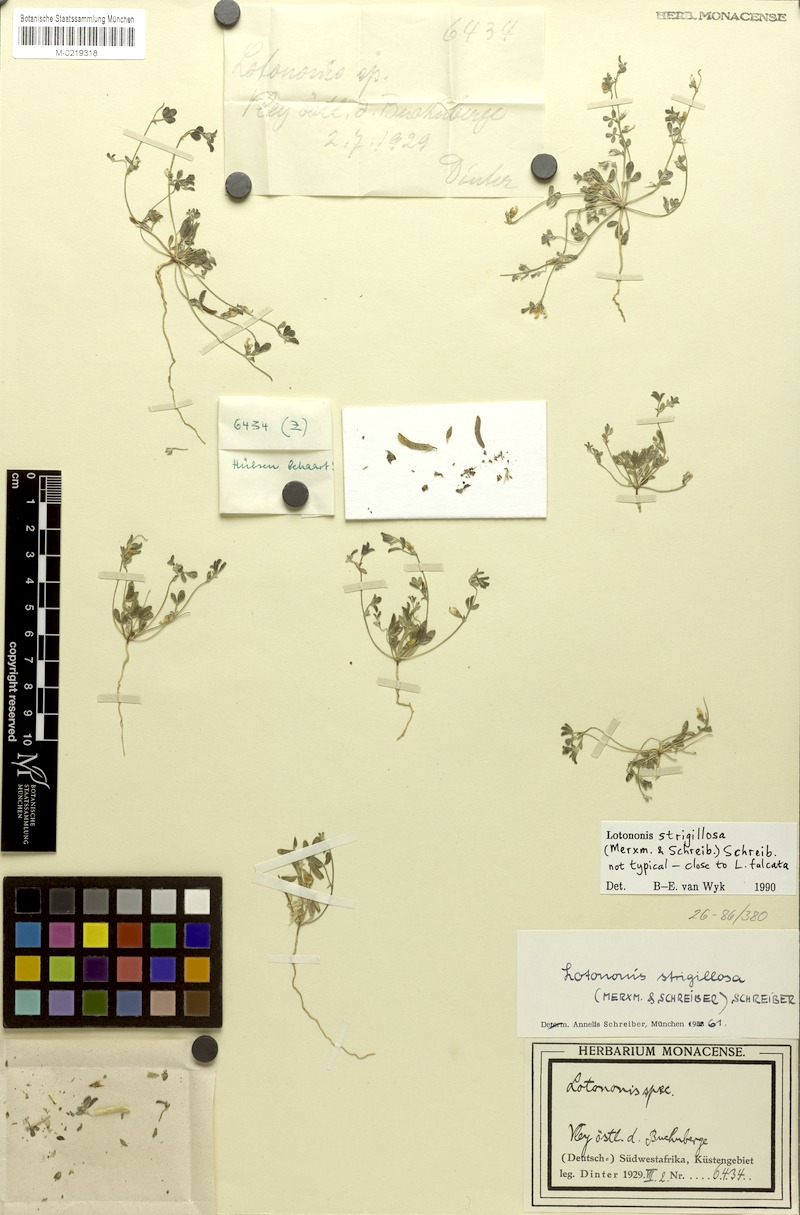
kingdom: Plantae
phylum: Tracheophyta
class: Magnoliopsida
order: Fabales
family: Fabaceae
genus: Lotononis
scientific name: Lotononis strigillosa
